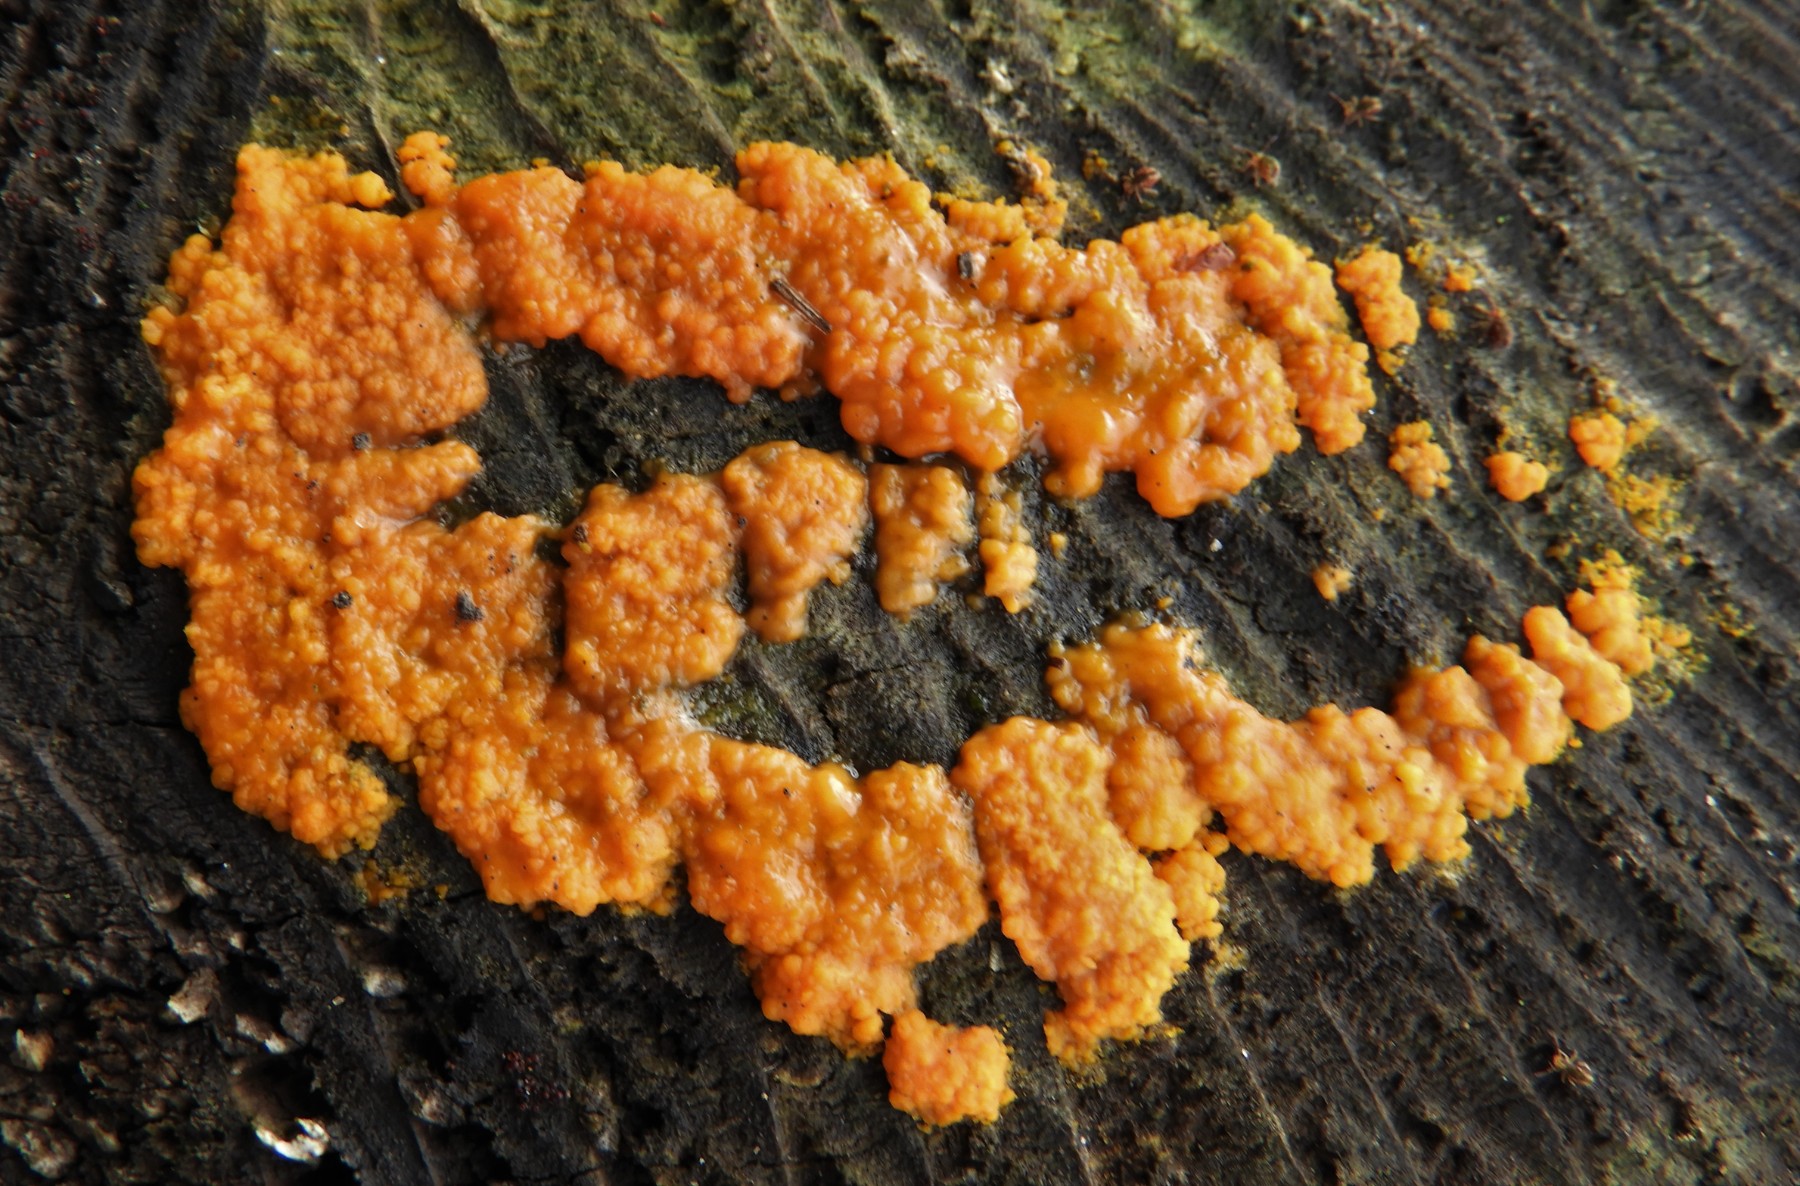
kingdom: Fungi
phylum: Basidiomycota
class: Dacrymycetes
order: Dacrymycetales
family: Dacrymycetaceae
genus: Dacrymyces
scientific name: Dacrymyces stillatus
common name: almindelig tåresvamp
